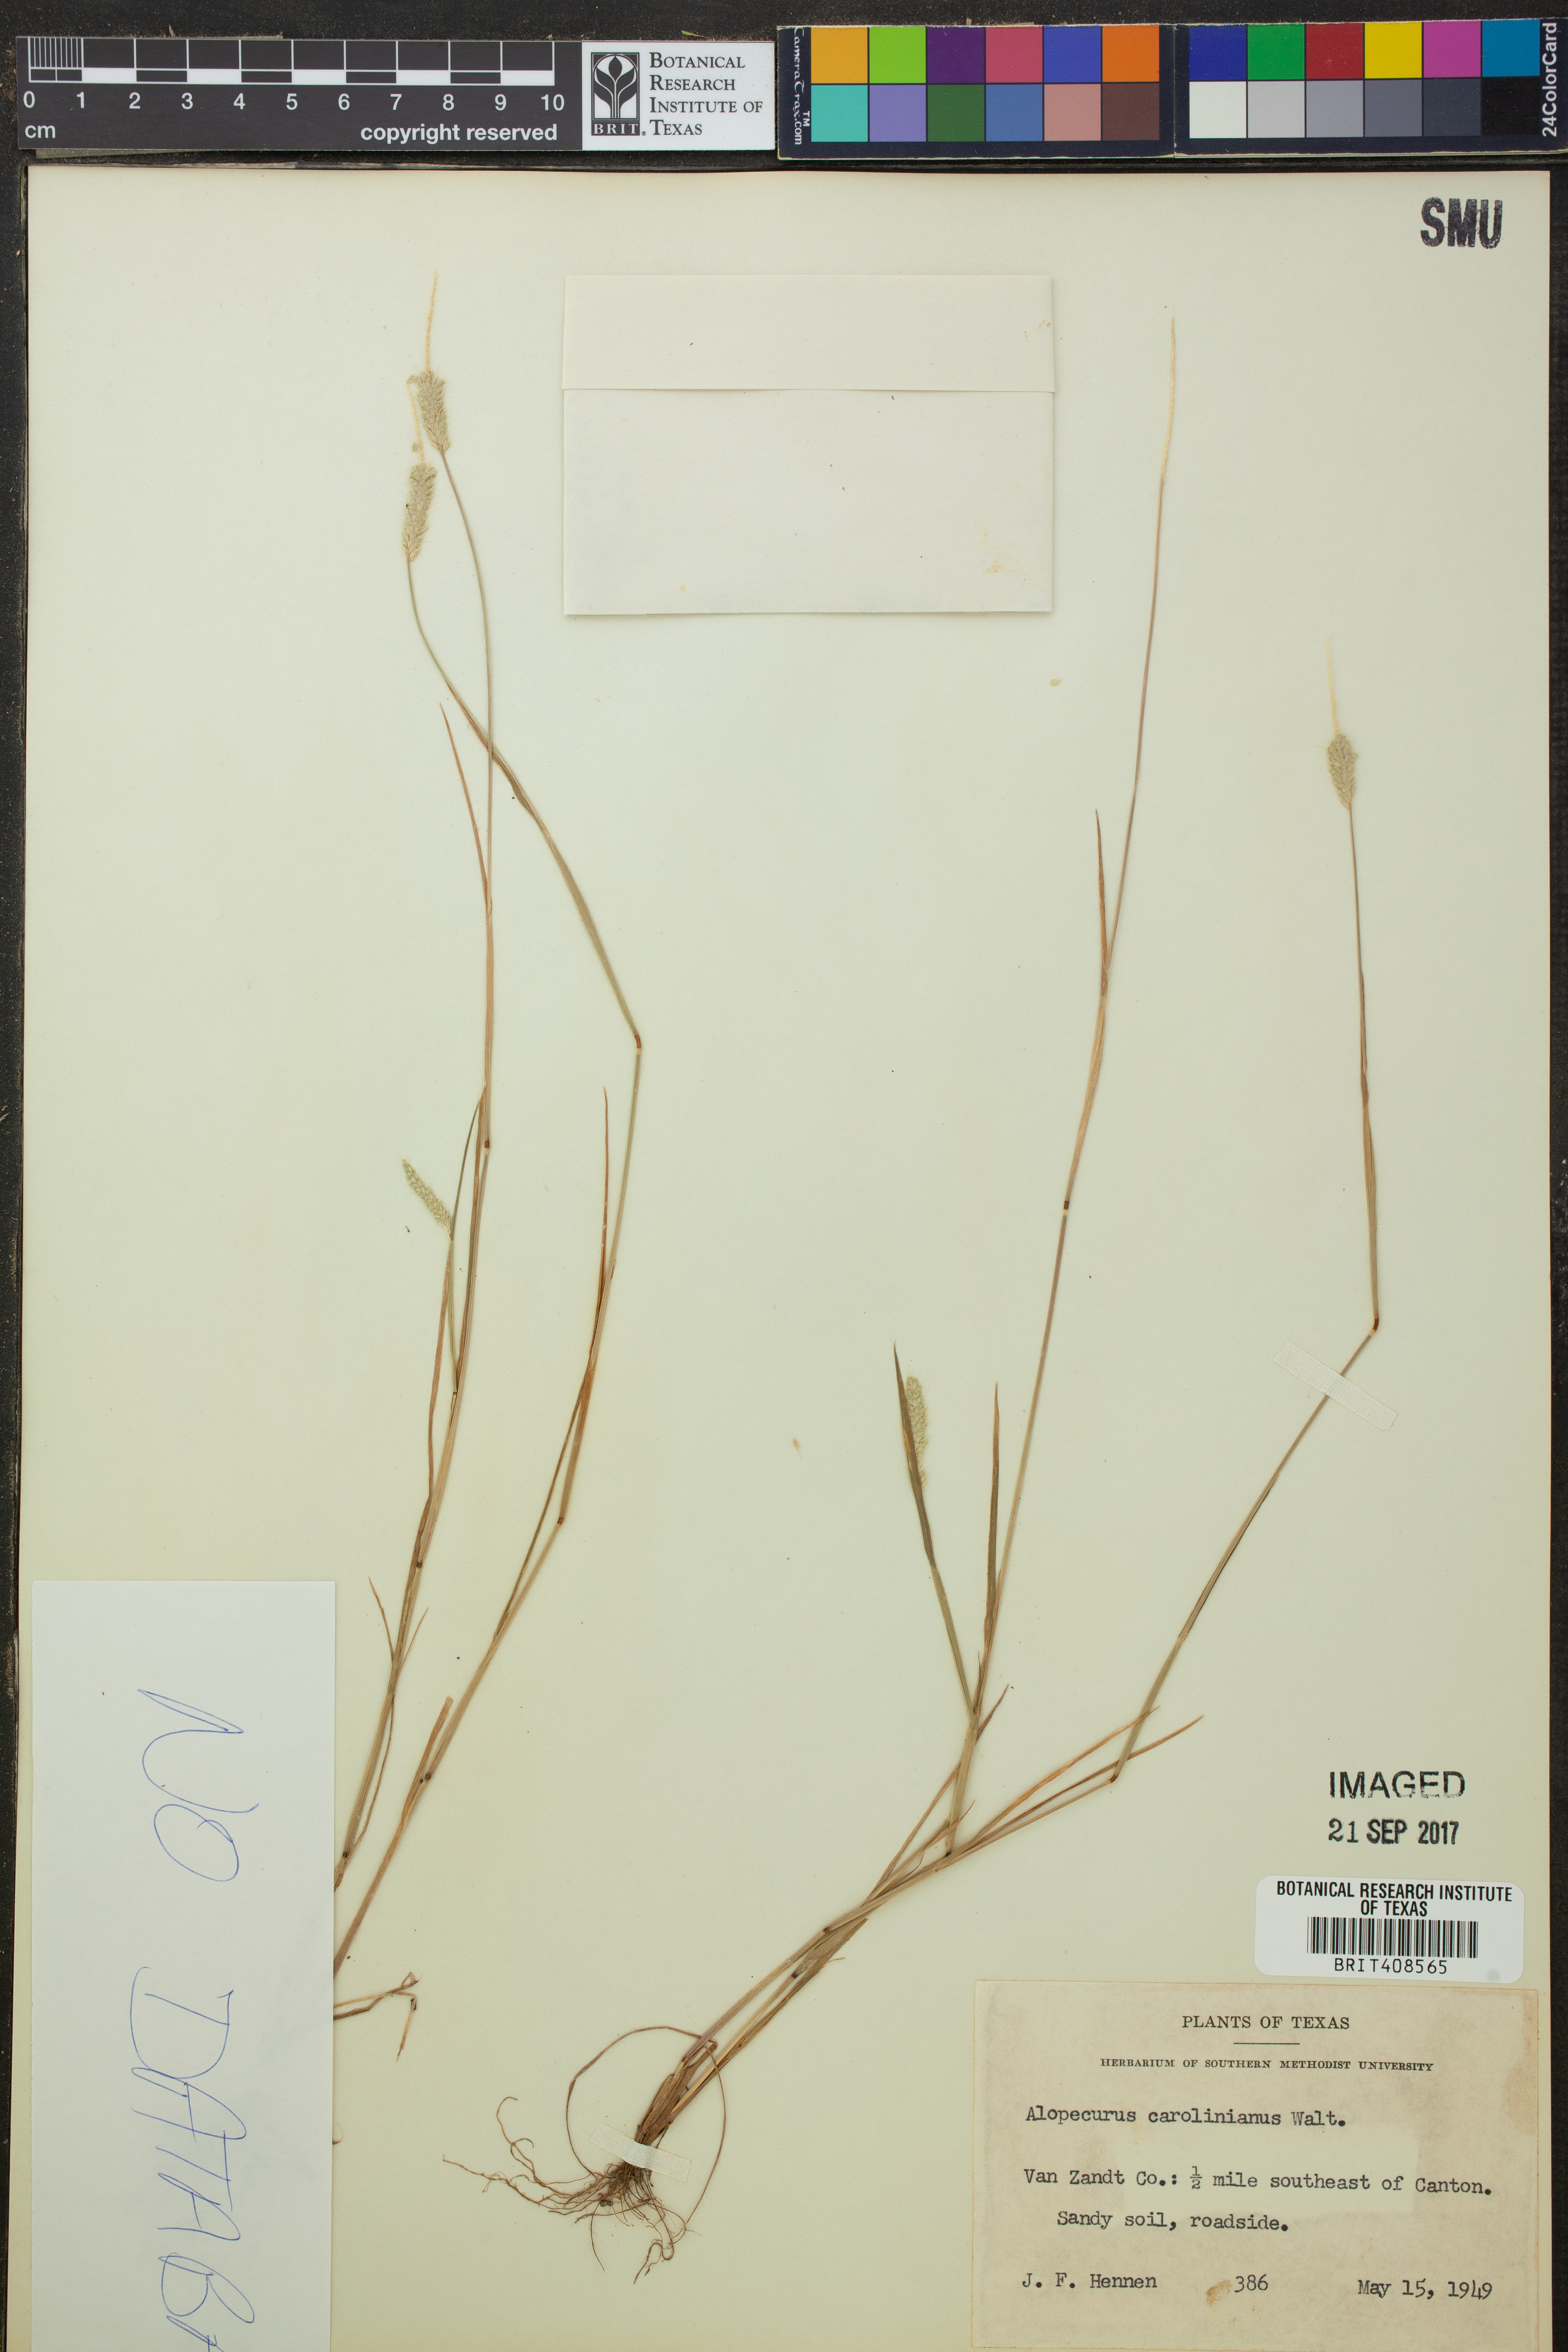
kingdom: Plantae
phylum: Tracheophyta
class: Liliopsida
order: Poales
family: Poaceae
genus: Alopecurus
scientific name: Alopecurus carolinianus
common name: Tufted foxtail
